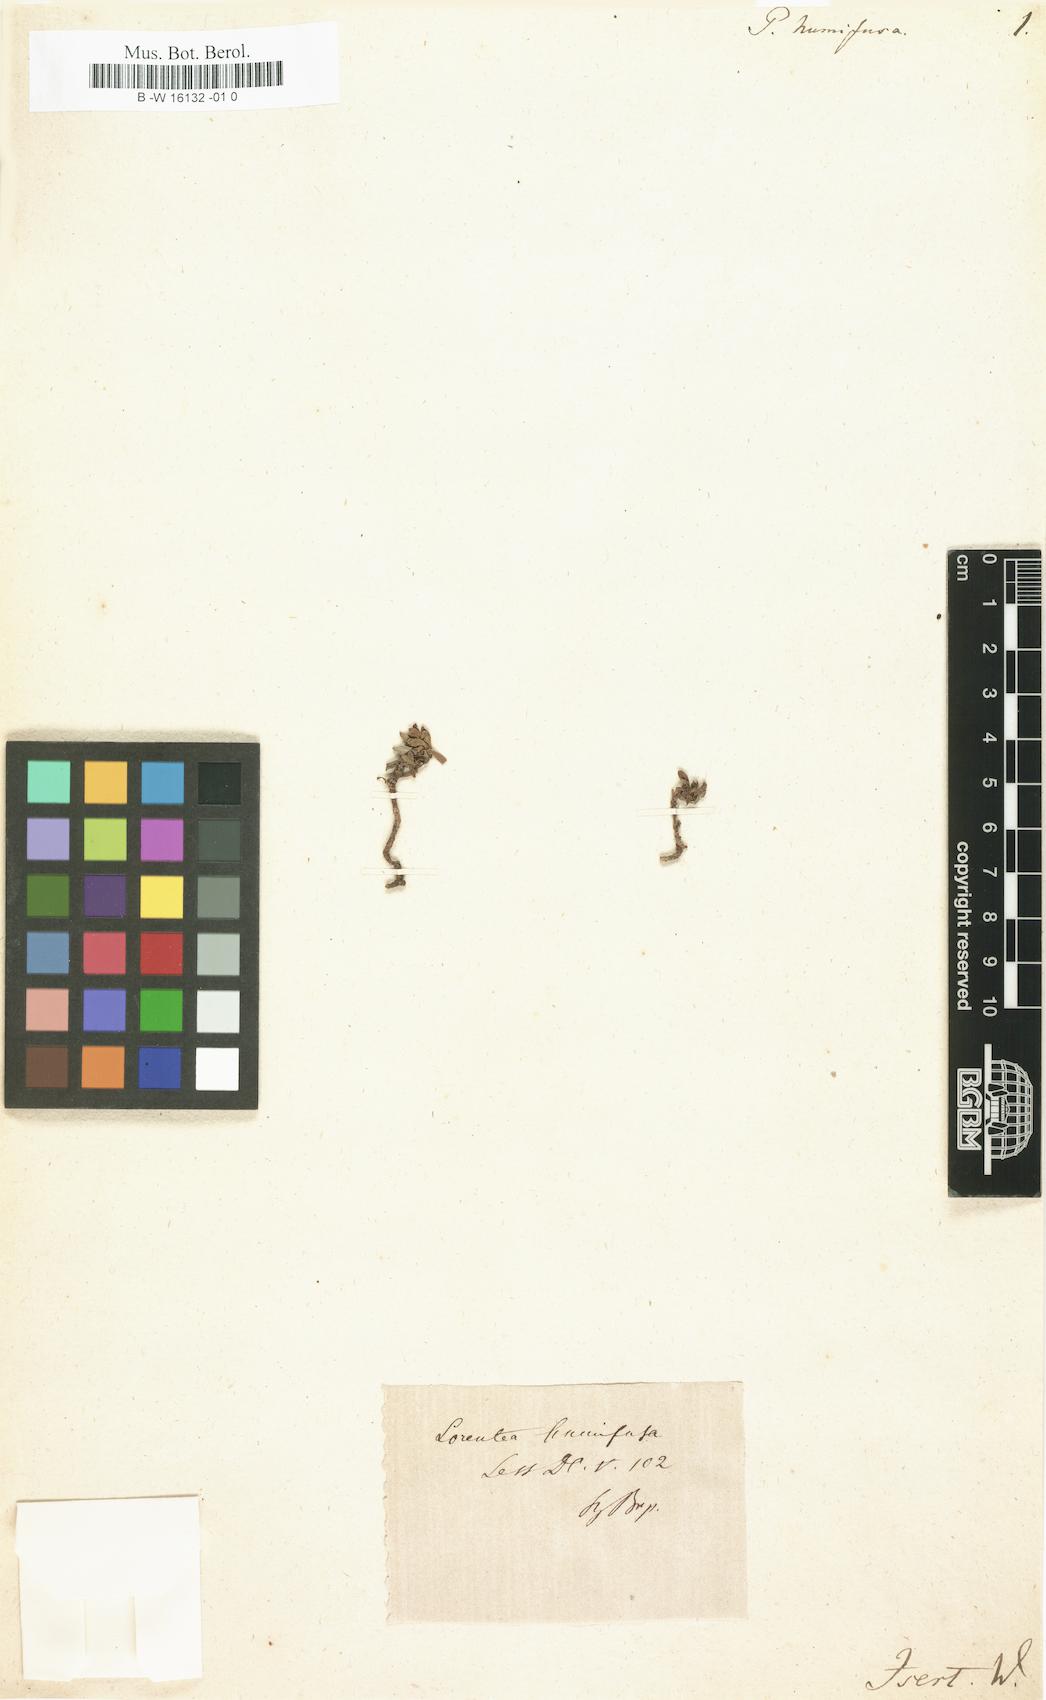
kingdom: Plantae
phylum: Tracheophyta
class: Magnoliopsida
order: Asterales
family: Asteraceae
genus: Pectis
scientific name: Pectis humifusa
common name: Yerba de san juan
